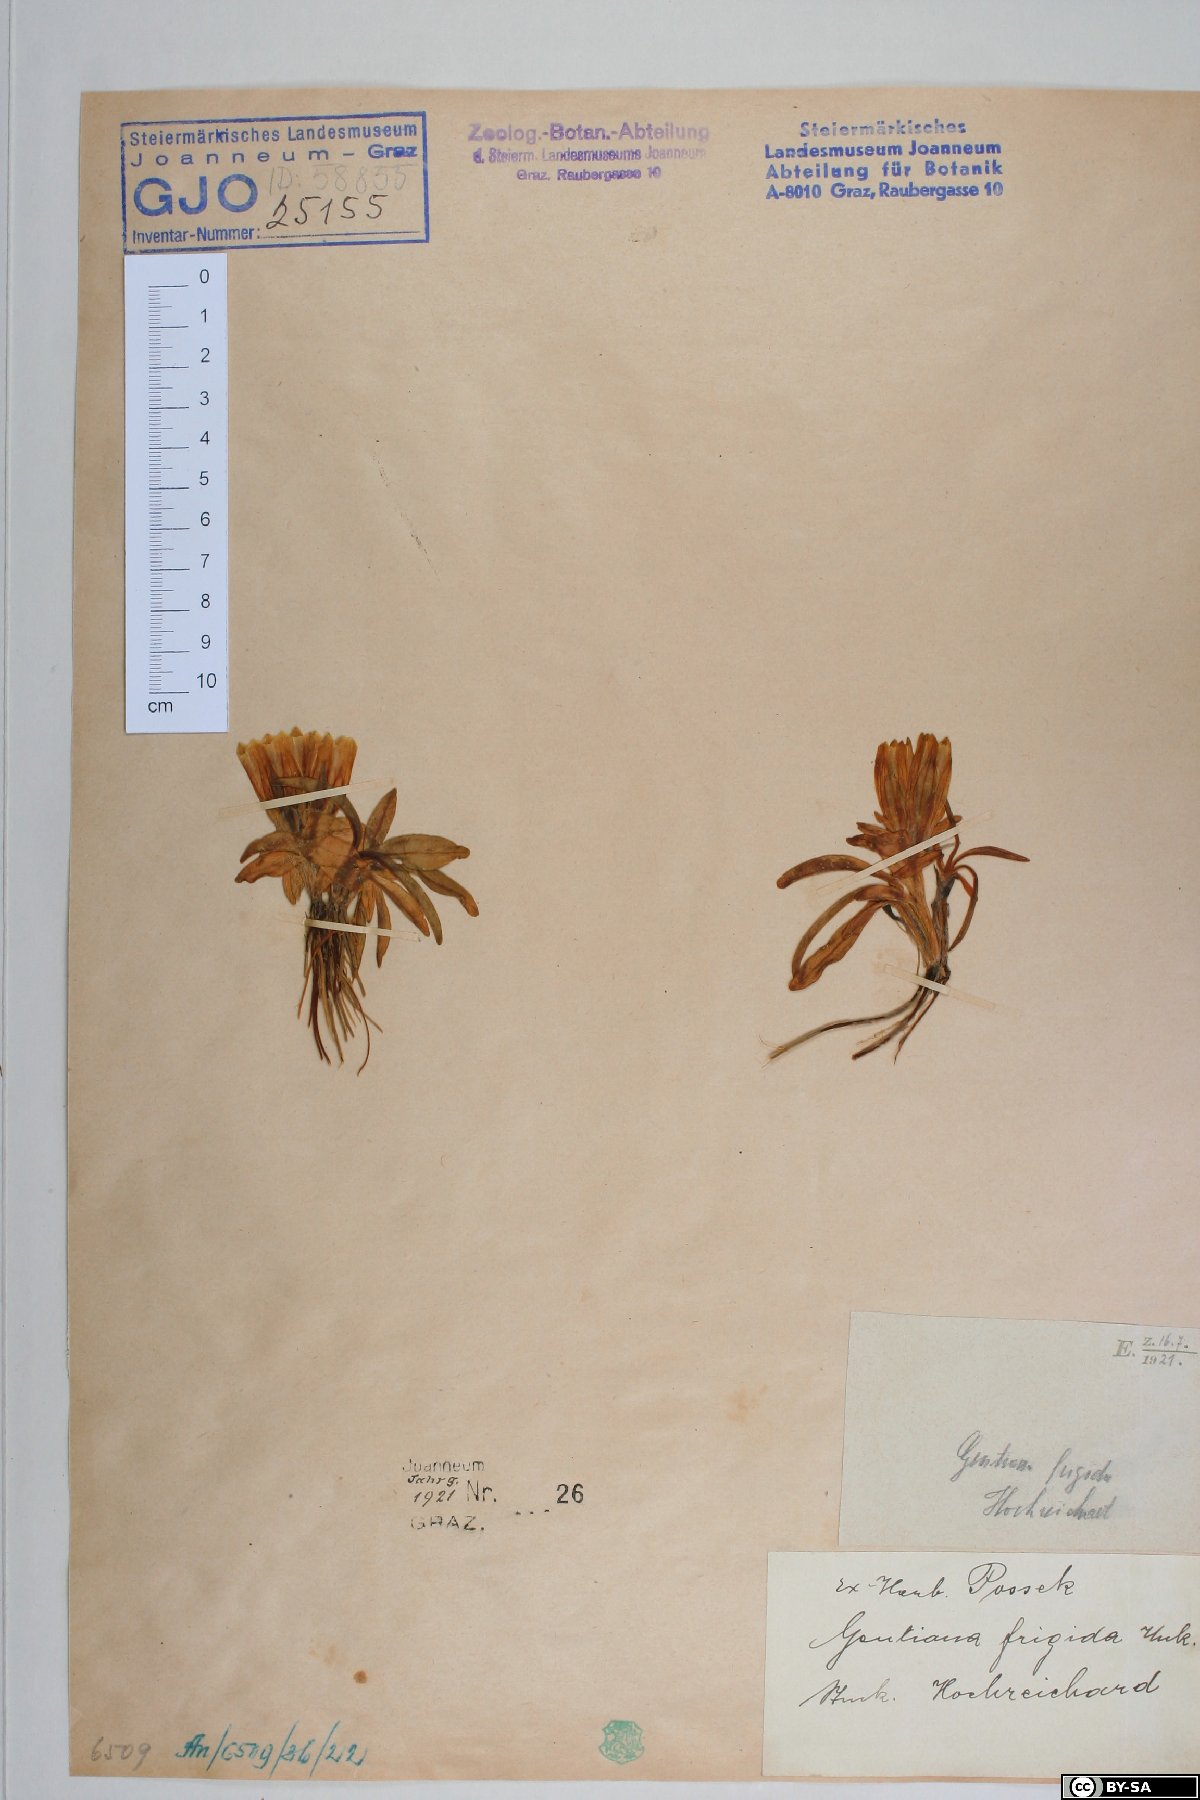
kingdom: Plantae
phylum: Tracheophyta
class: Magnoliopsida
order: Gentianales
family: Gentianaceae
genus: Gentiana
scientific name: Gentiana frigida
